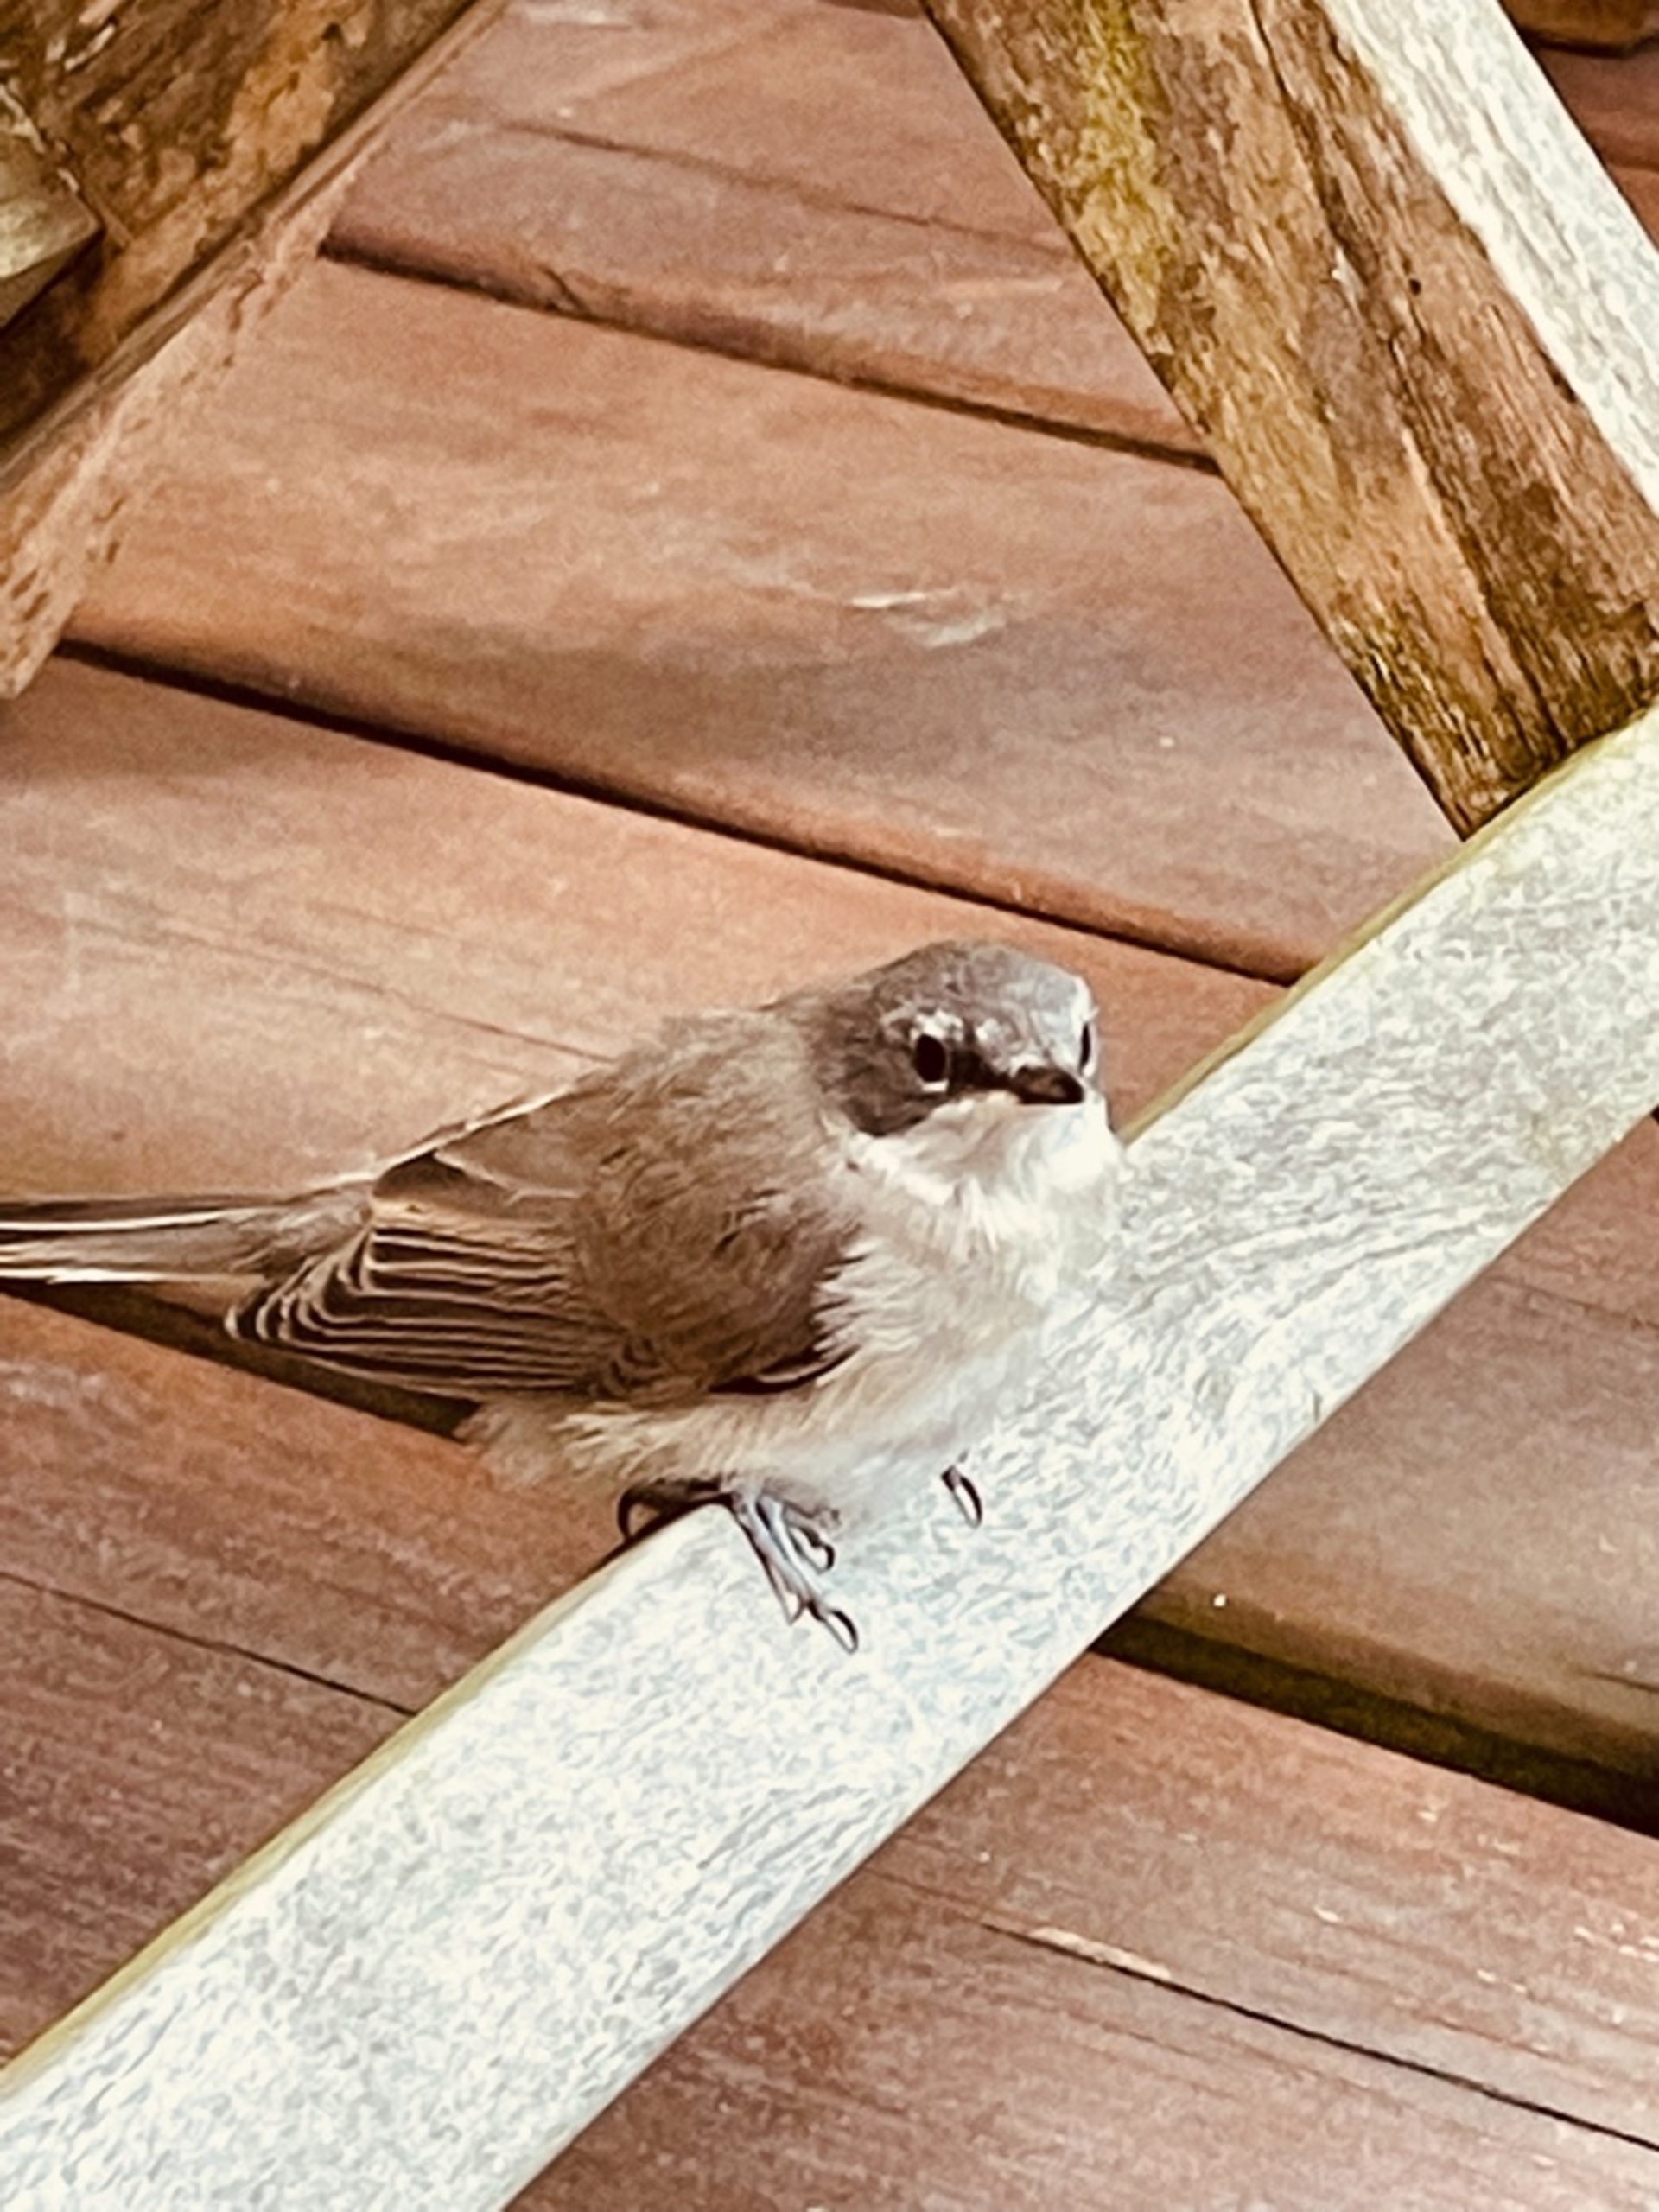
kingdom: Animalia
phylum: Chordata
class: Aves
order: Passeriformes
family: Sylviidae
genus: Sylvia
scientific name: Sylvia curruca
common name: Gærdesanger
